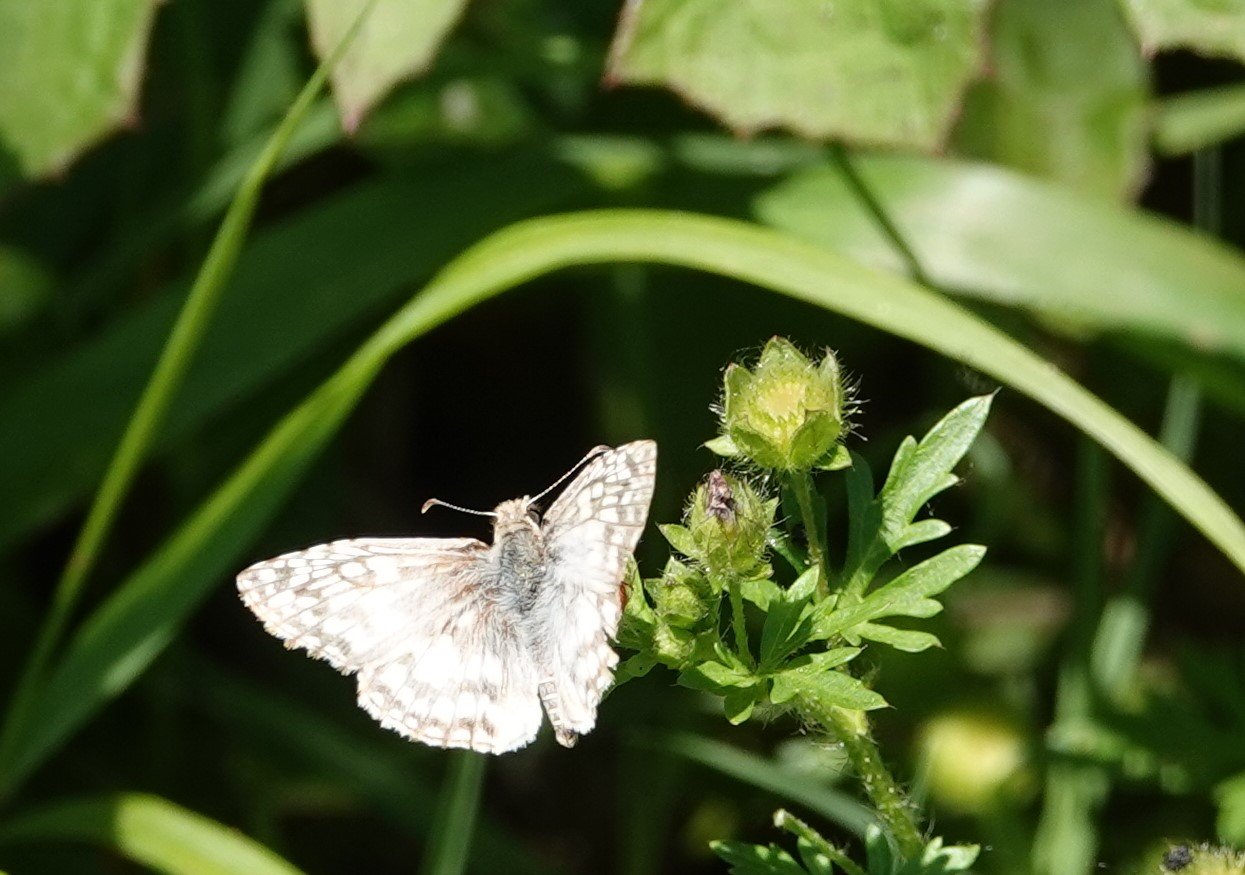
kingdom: Animalia
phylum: Arthropoda
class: Insecta
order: Lepidoptera
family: Hesperiidae
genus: Pyrgus
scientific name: Pyrgus oileus
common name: Tropical Checkered-Skipper
